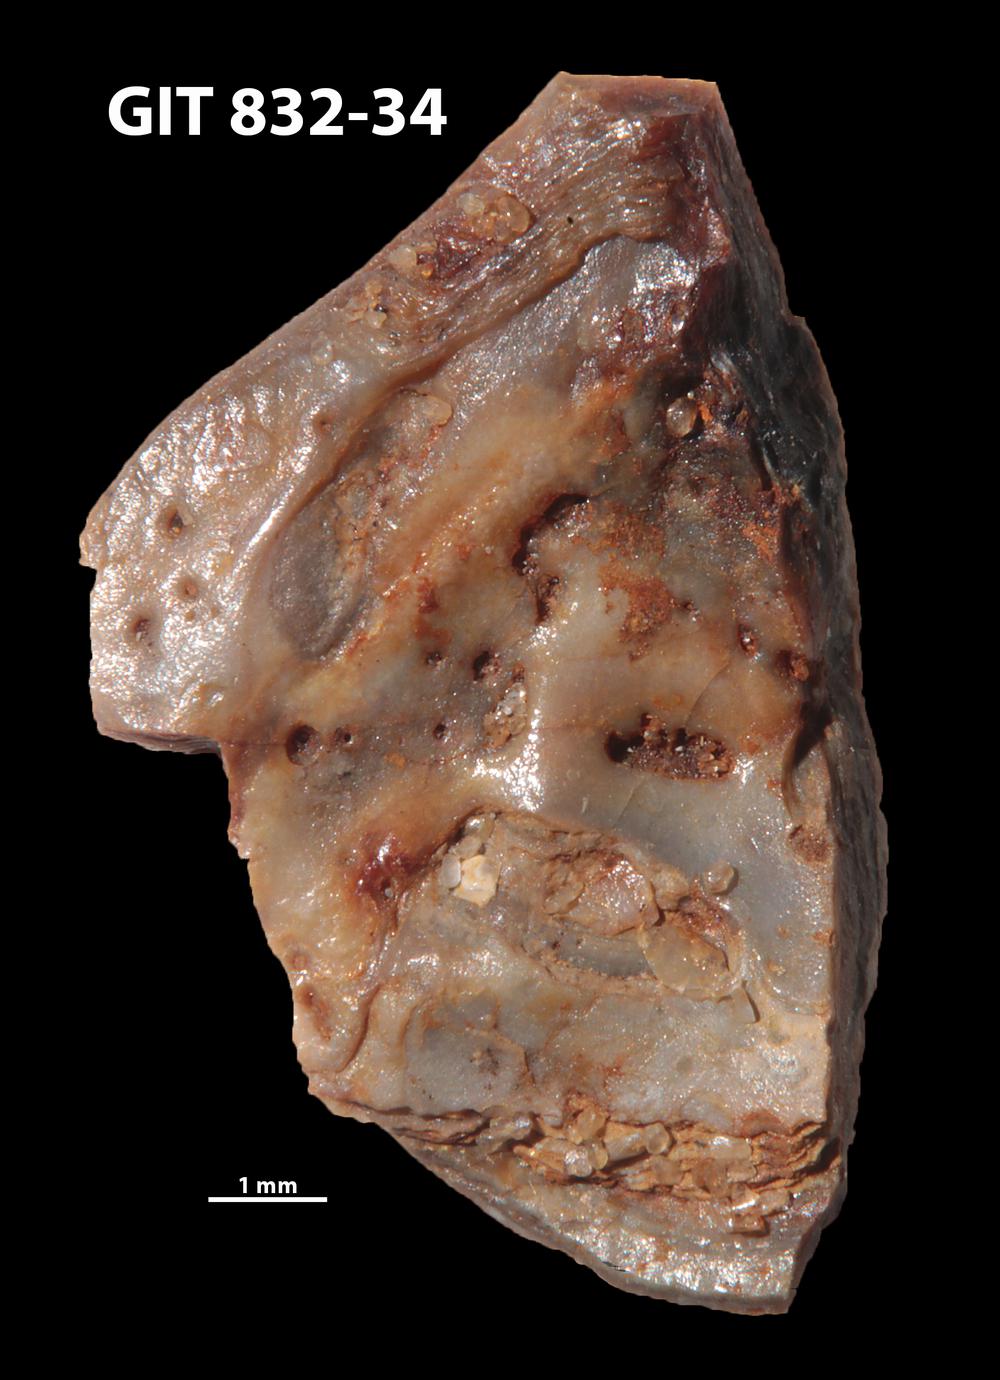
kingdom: Animalia
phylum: Brachiopoda
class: Lingulata
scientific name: Lingulata
